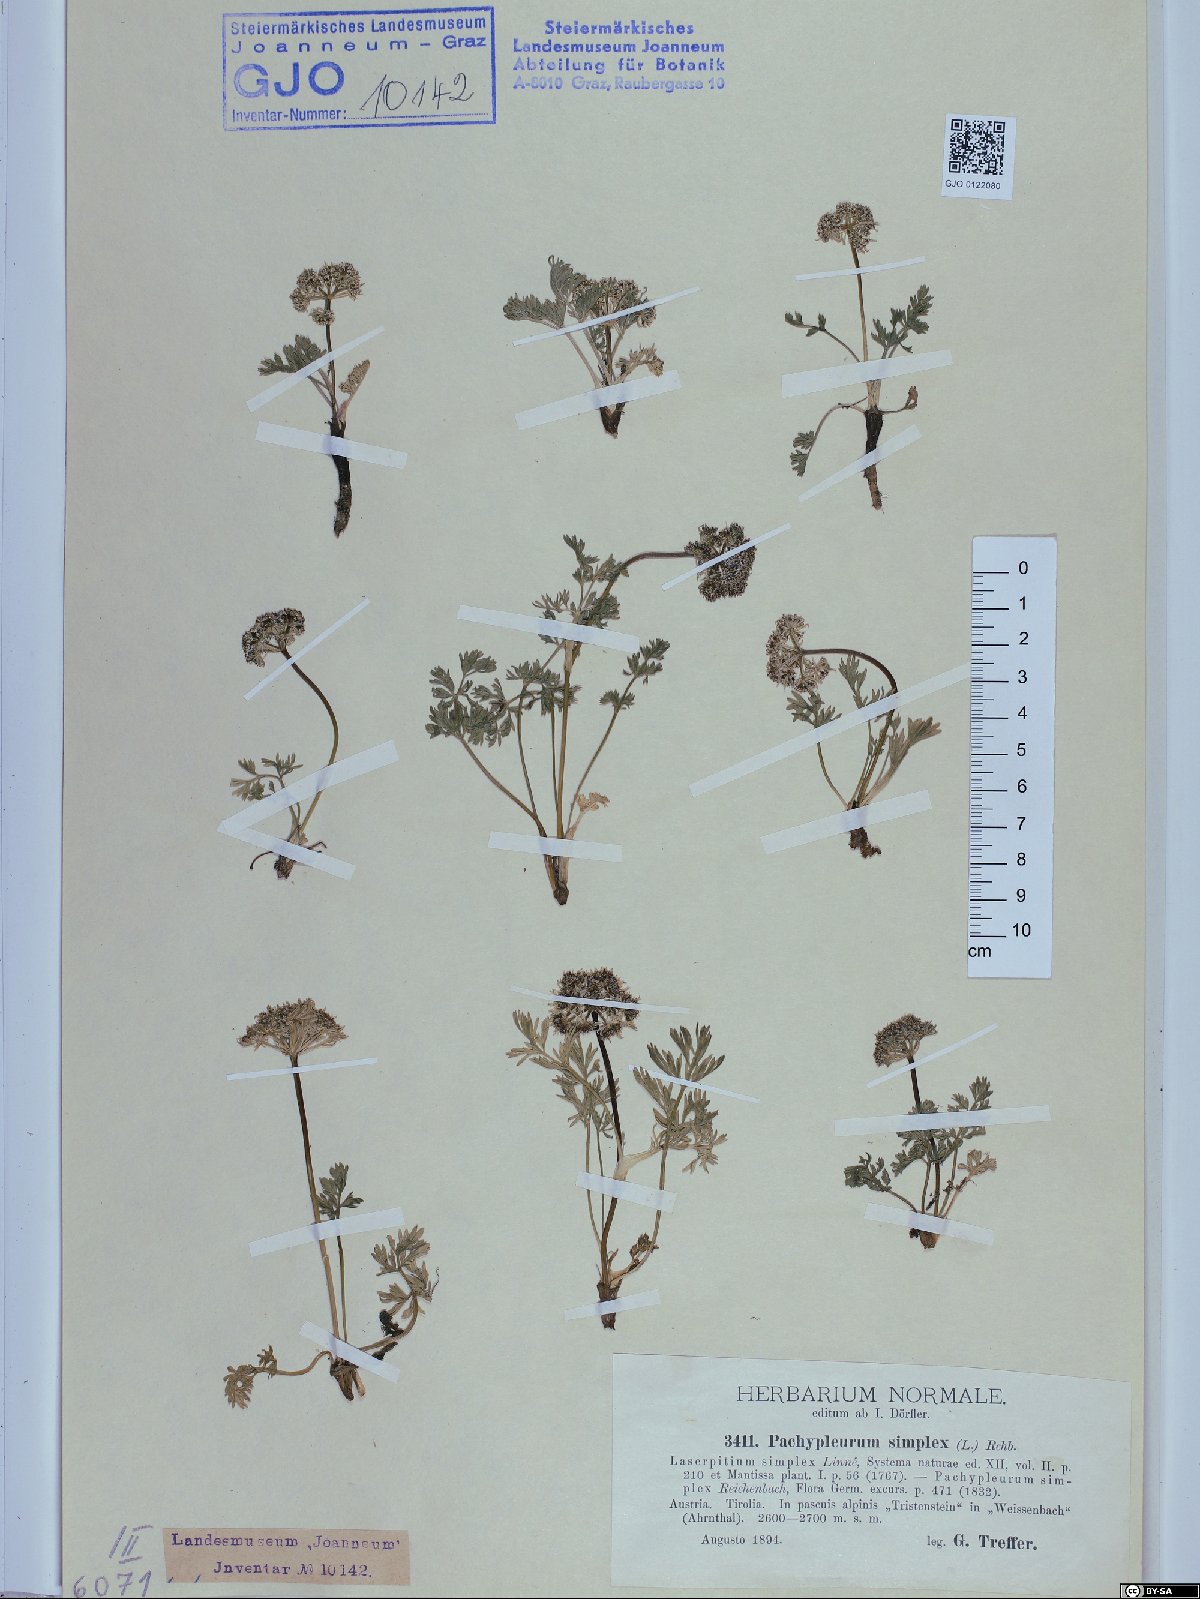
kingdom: Plantae
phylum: Tracheophyta
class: Magnoliopsida
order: Apiales
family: Apiaceae
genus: Pachypleurum
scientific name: Pachypleurum mutellinoides
